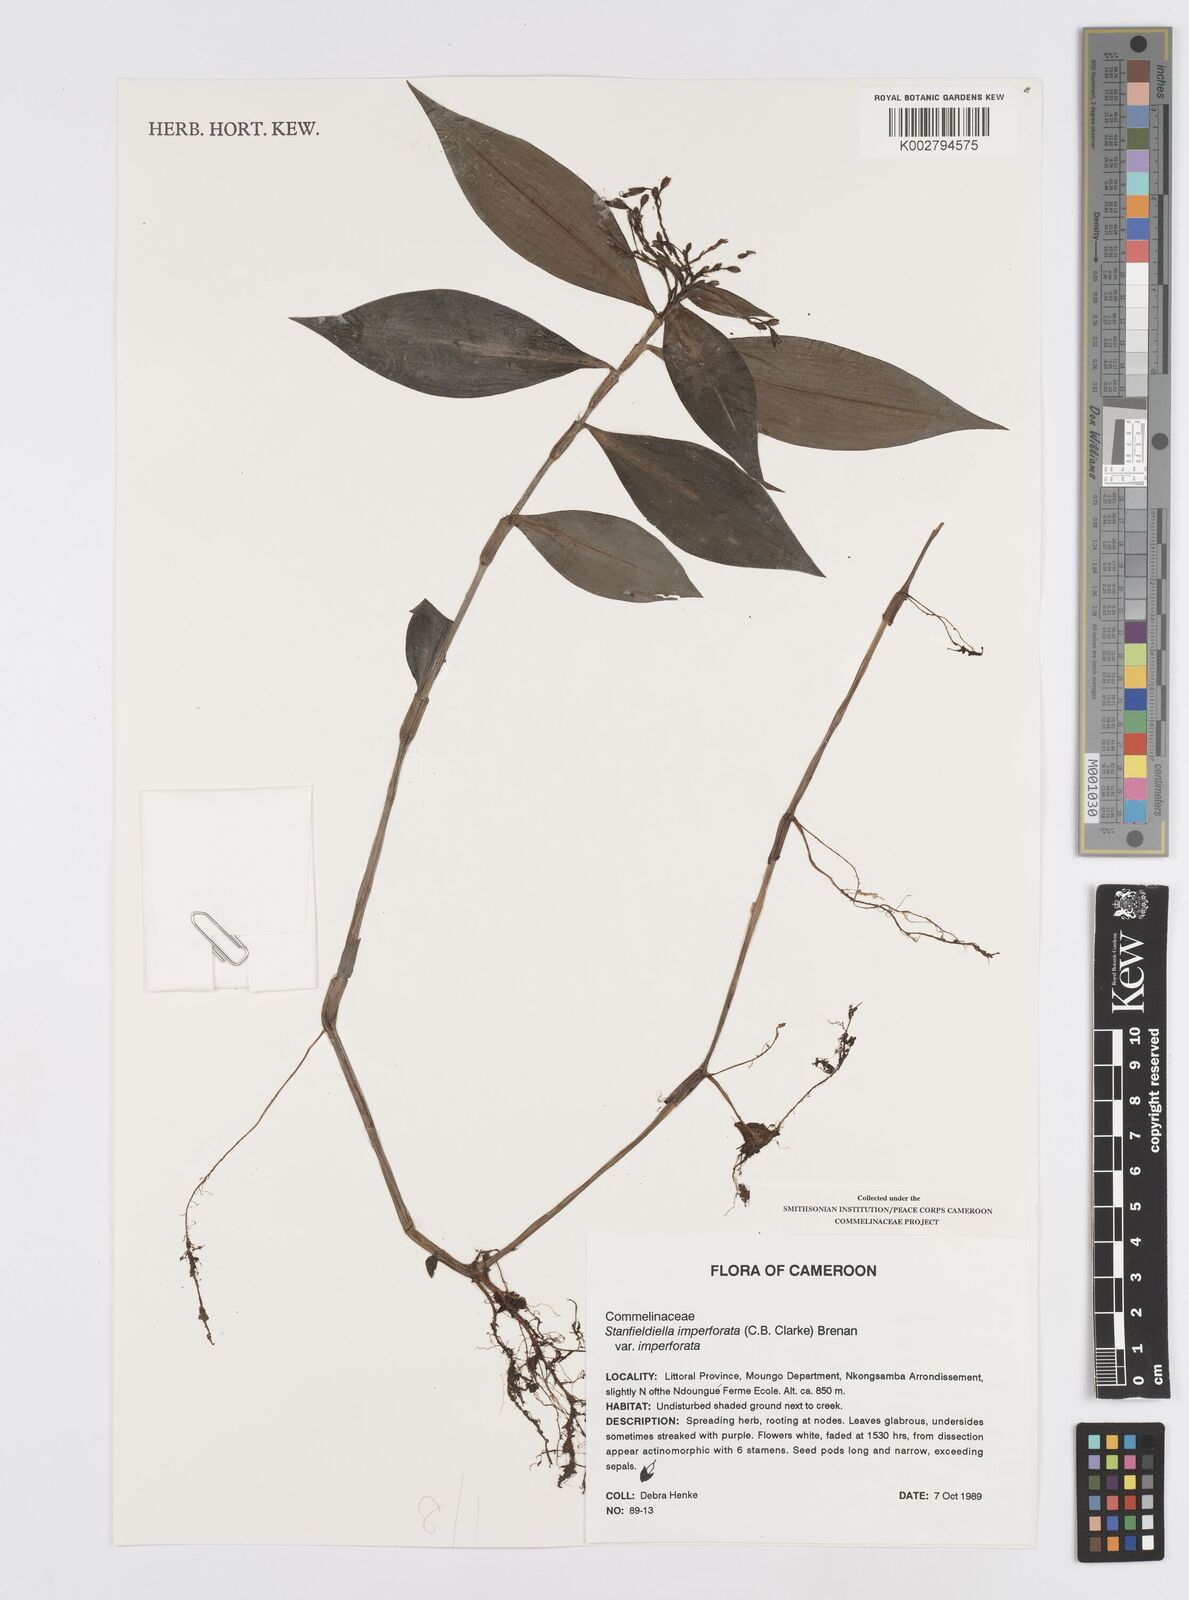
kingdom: Plantae
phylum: Tracheophyta
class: Liliopsida
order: Commelinales
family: Commelinaceae
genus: Stanfieldiella
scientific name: Stanfieldiella imperforata
